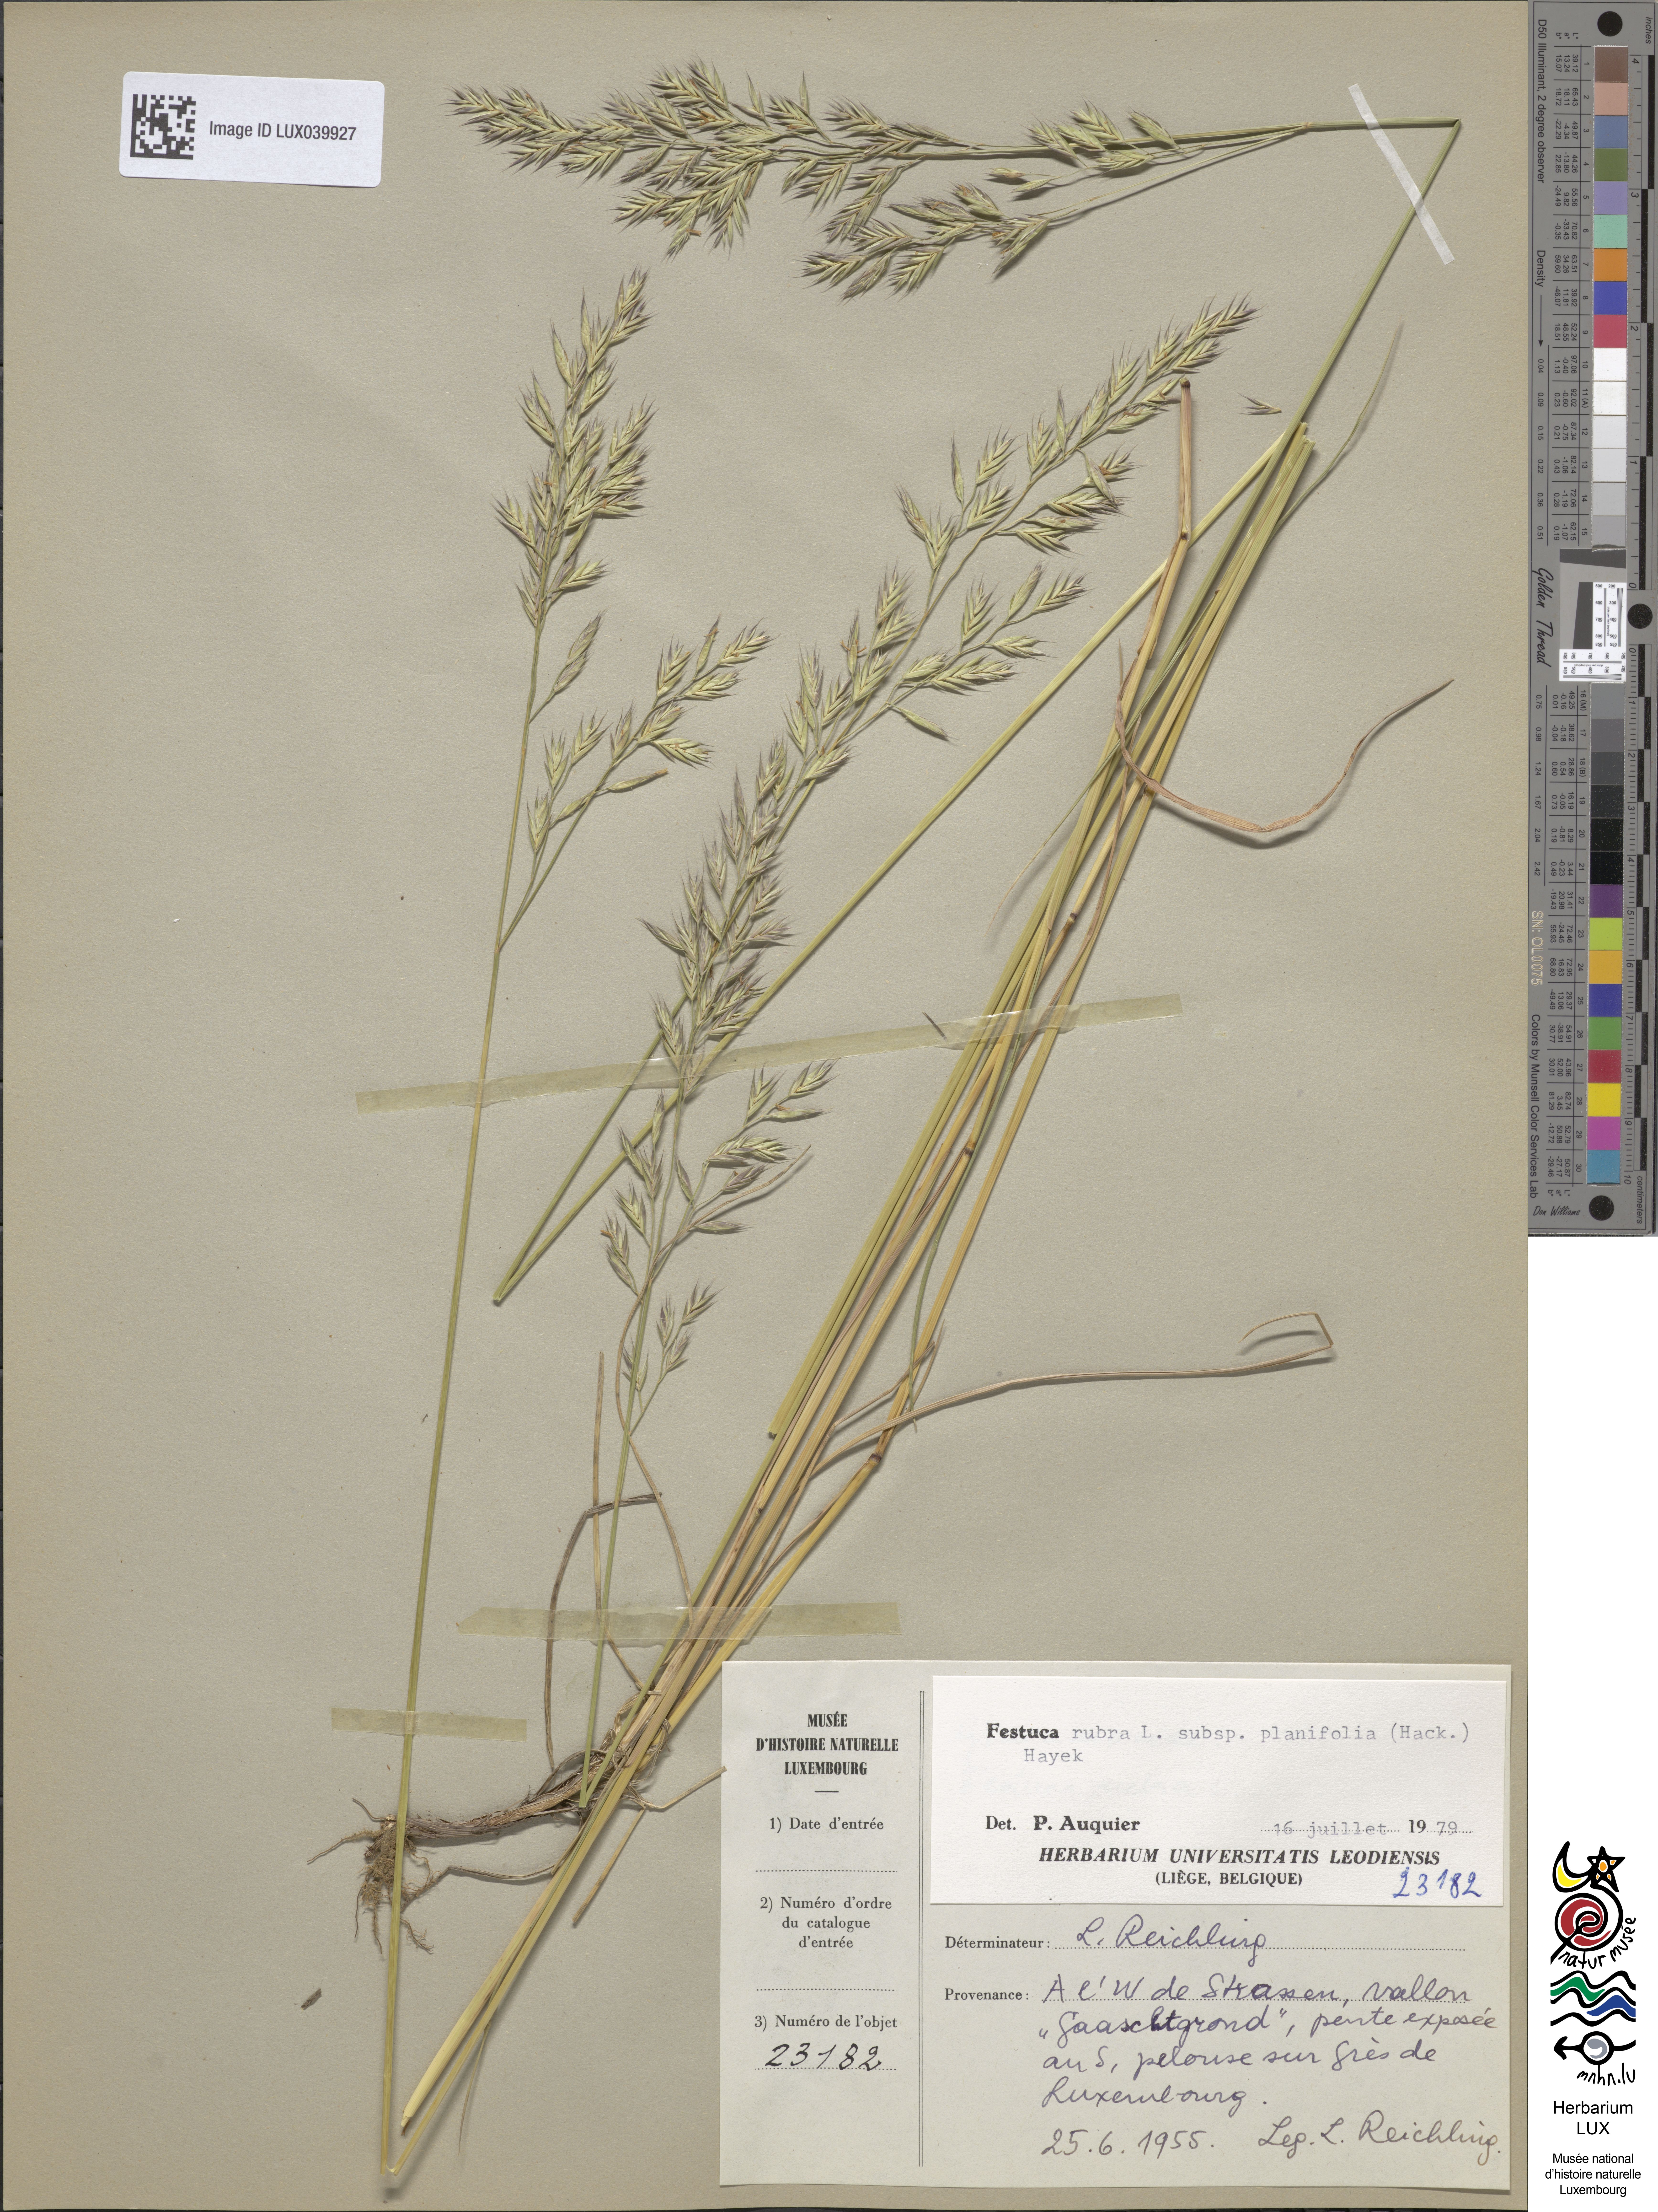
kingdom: Plantae
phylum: Tracheophyta
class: Liliopsida
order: Poales
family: Poaceae
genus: Festuca
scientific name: Festuca rubra
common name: Red fescue
